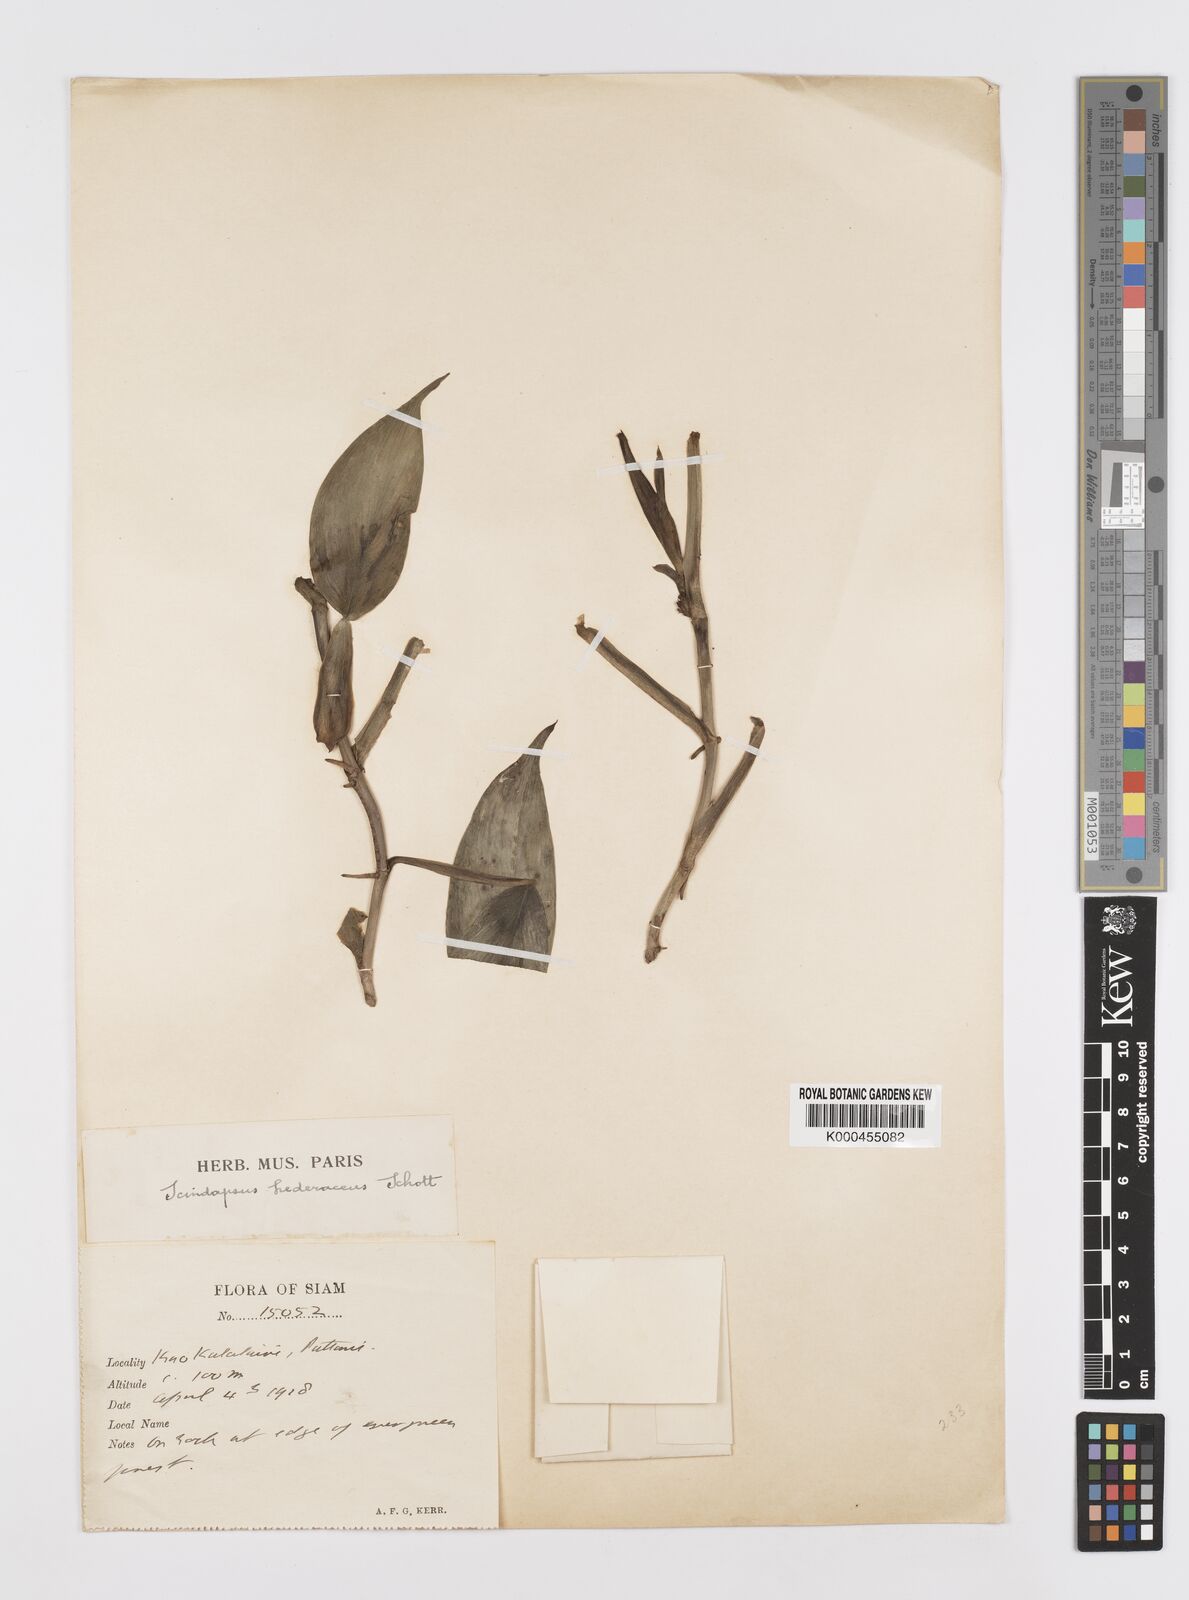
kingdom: Plantae
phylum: Tracheophyta
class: Liliopsida
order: Alismatales
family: Araceae
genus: Scindapsus
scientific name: Scindapsus hederaceus
